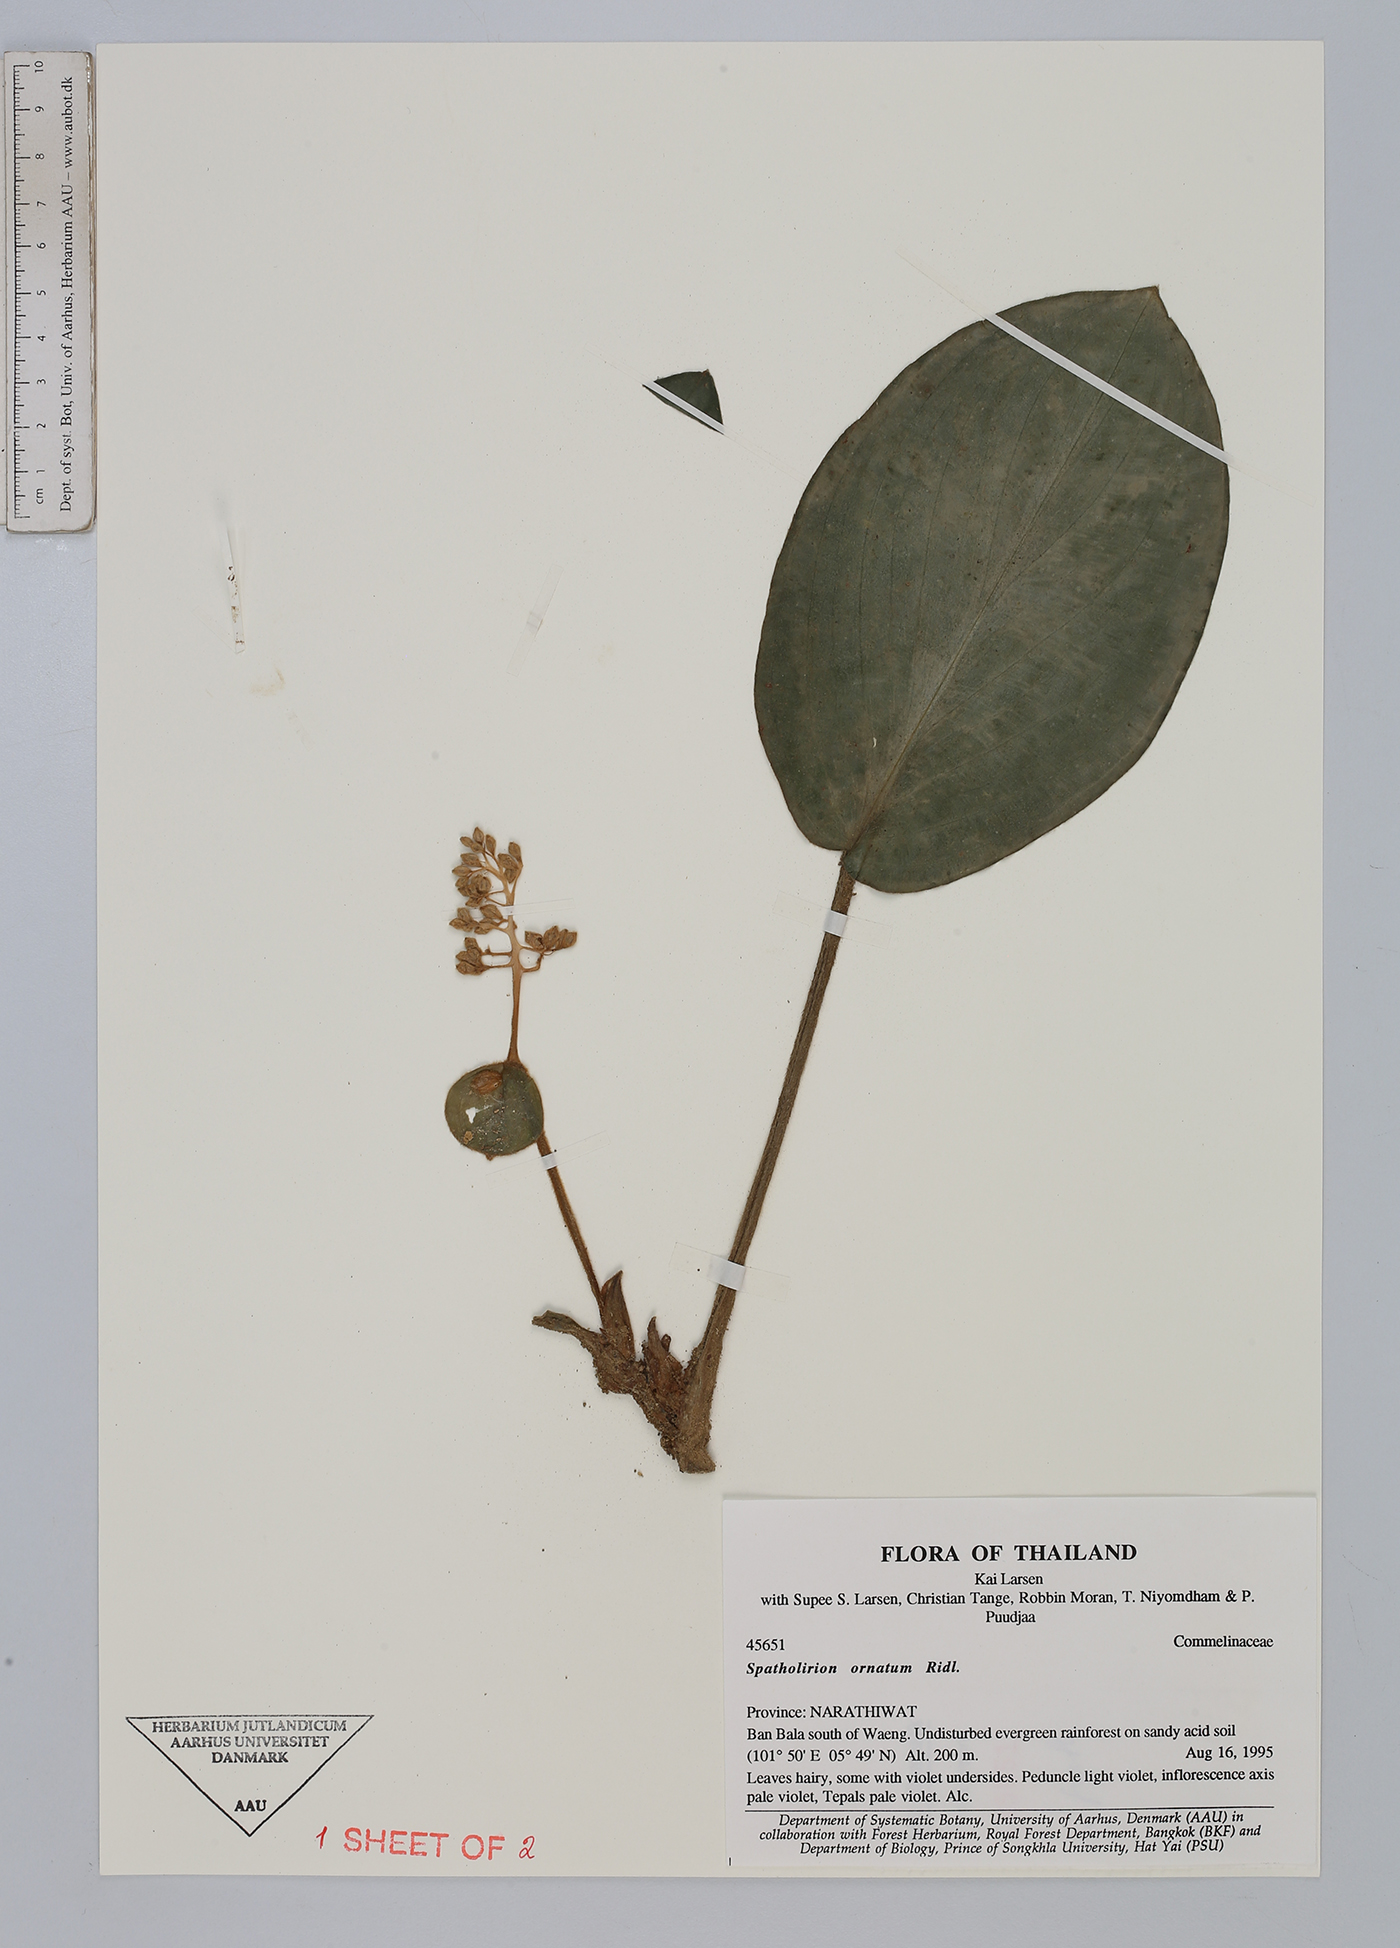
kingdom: Plantae
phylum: Tracheophyta
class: Liliopsida
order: Commelinales
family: Commelinaceae
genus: Spatholirion
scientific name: Spatholirion ornatum
